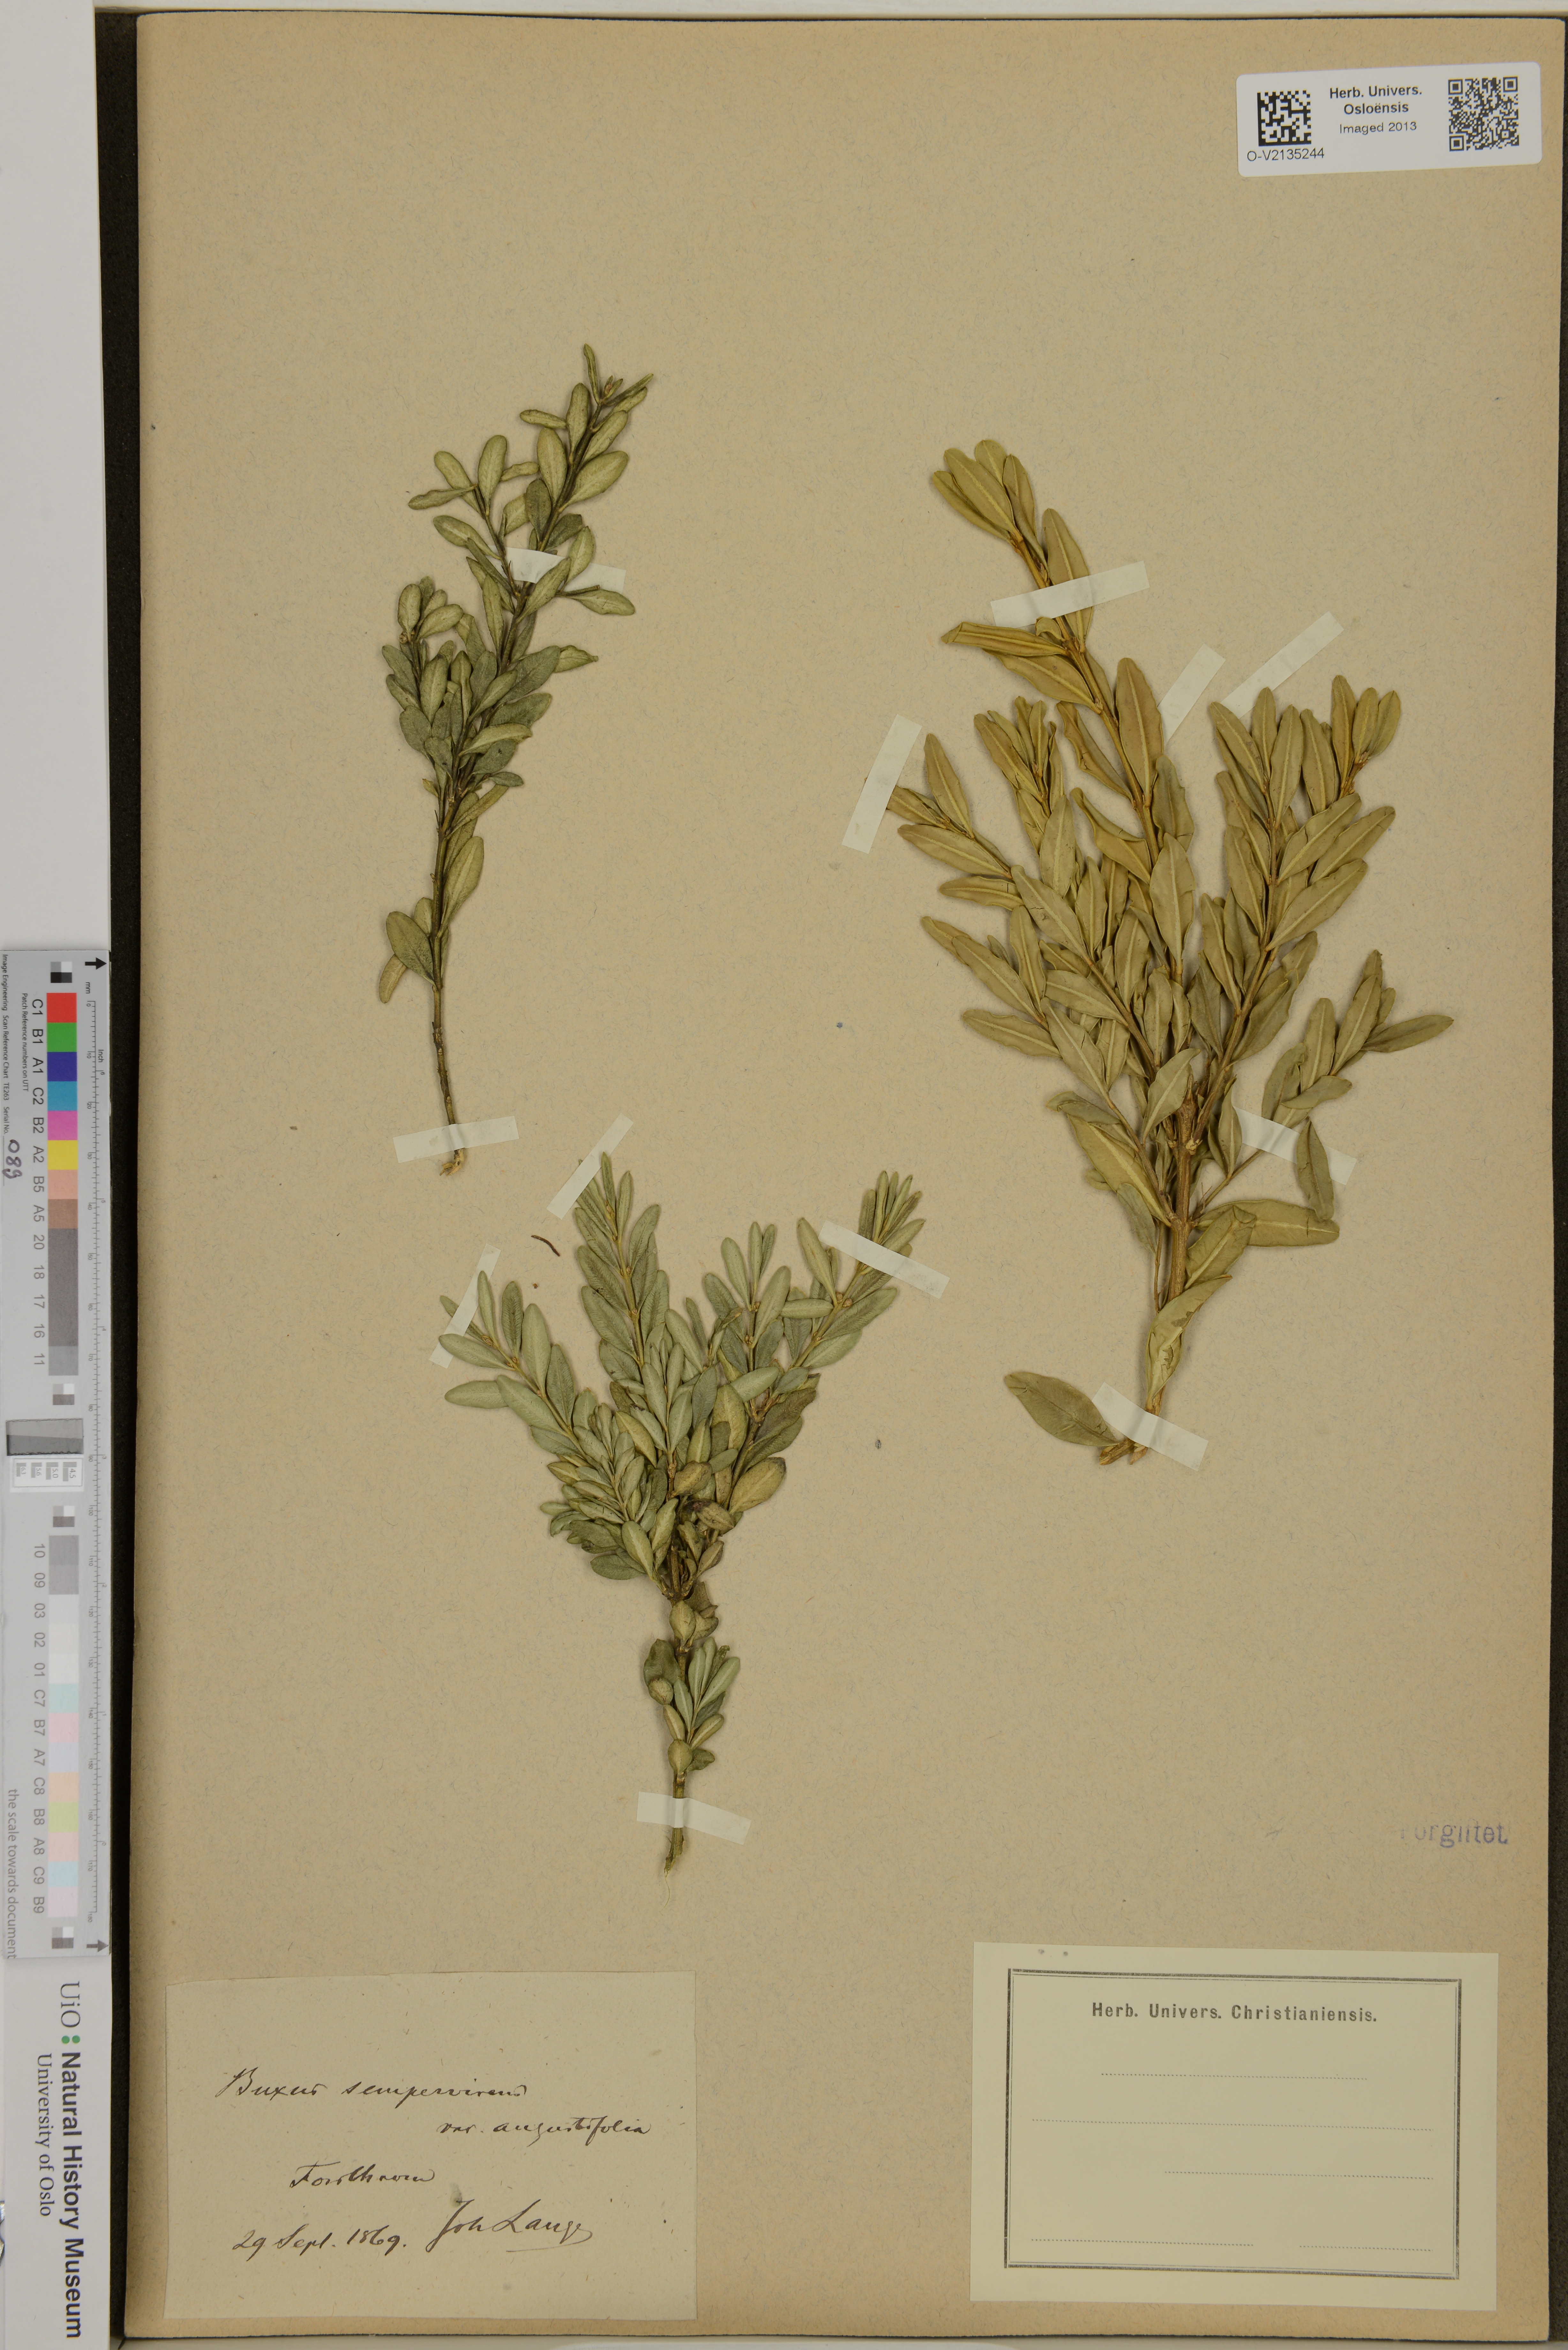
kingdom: Plantae
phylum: Tracheophyta
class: Magnoliopsida
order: Buxales
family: Buxaceae
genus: Buxus
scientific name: Buxus sempervirens
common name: Box
